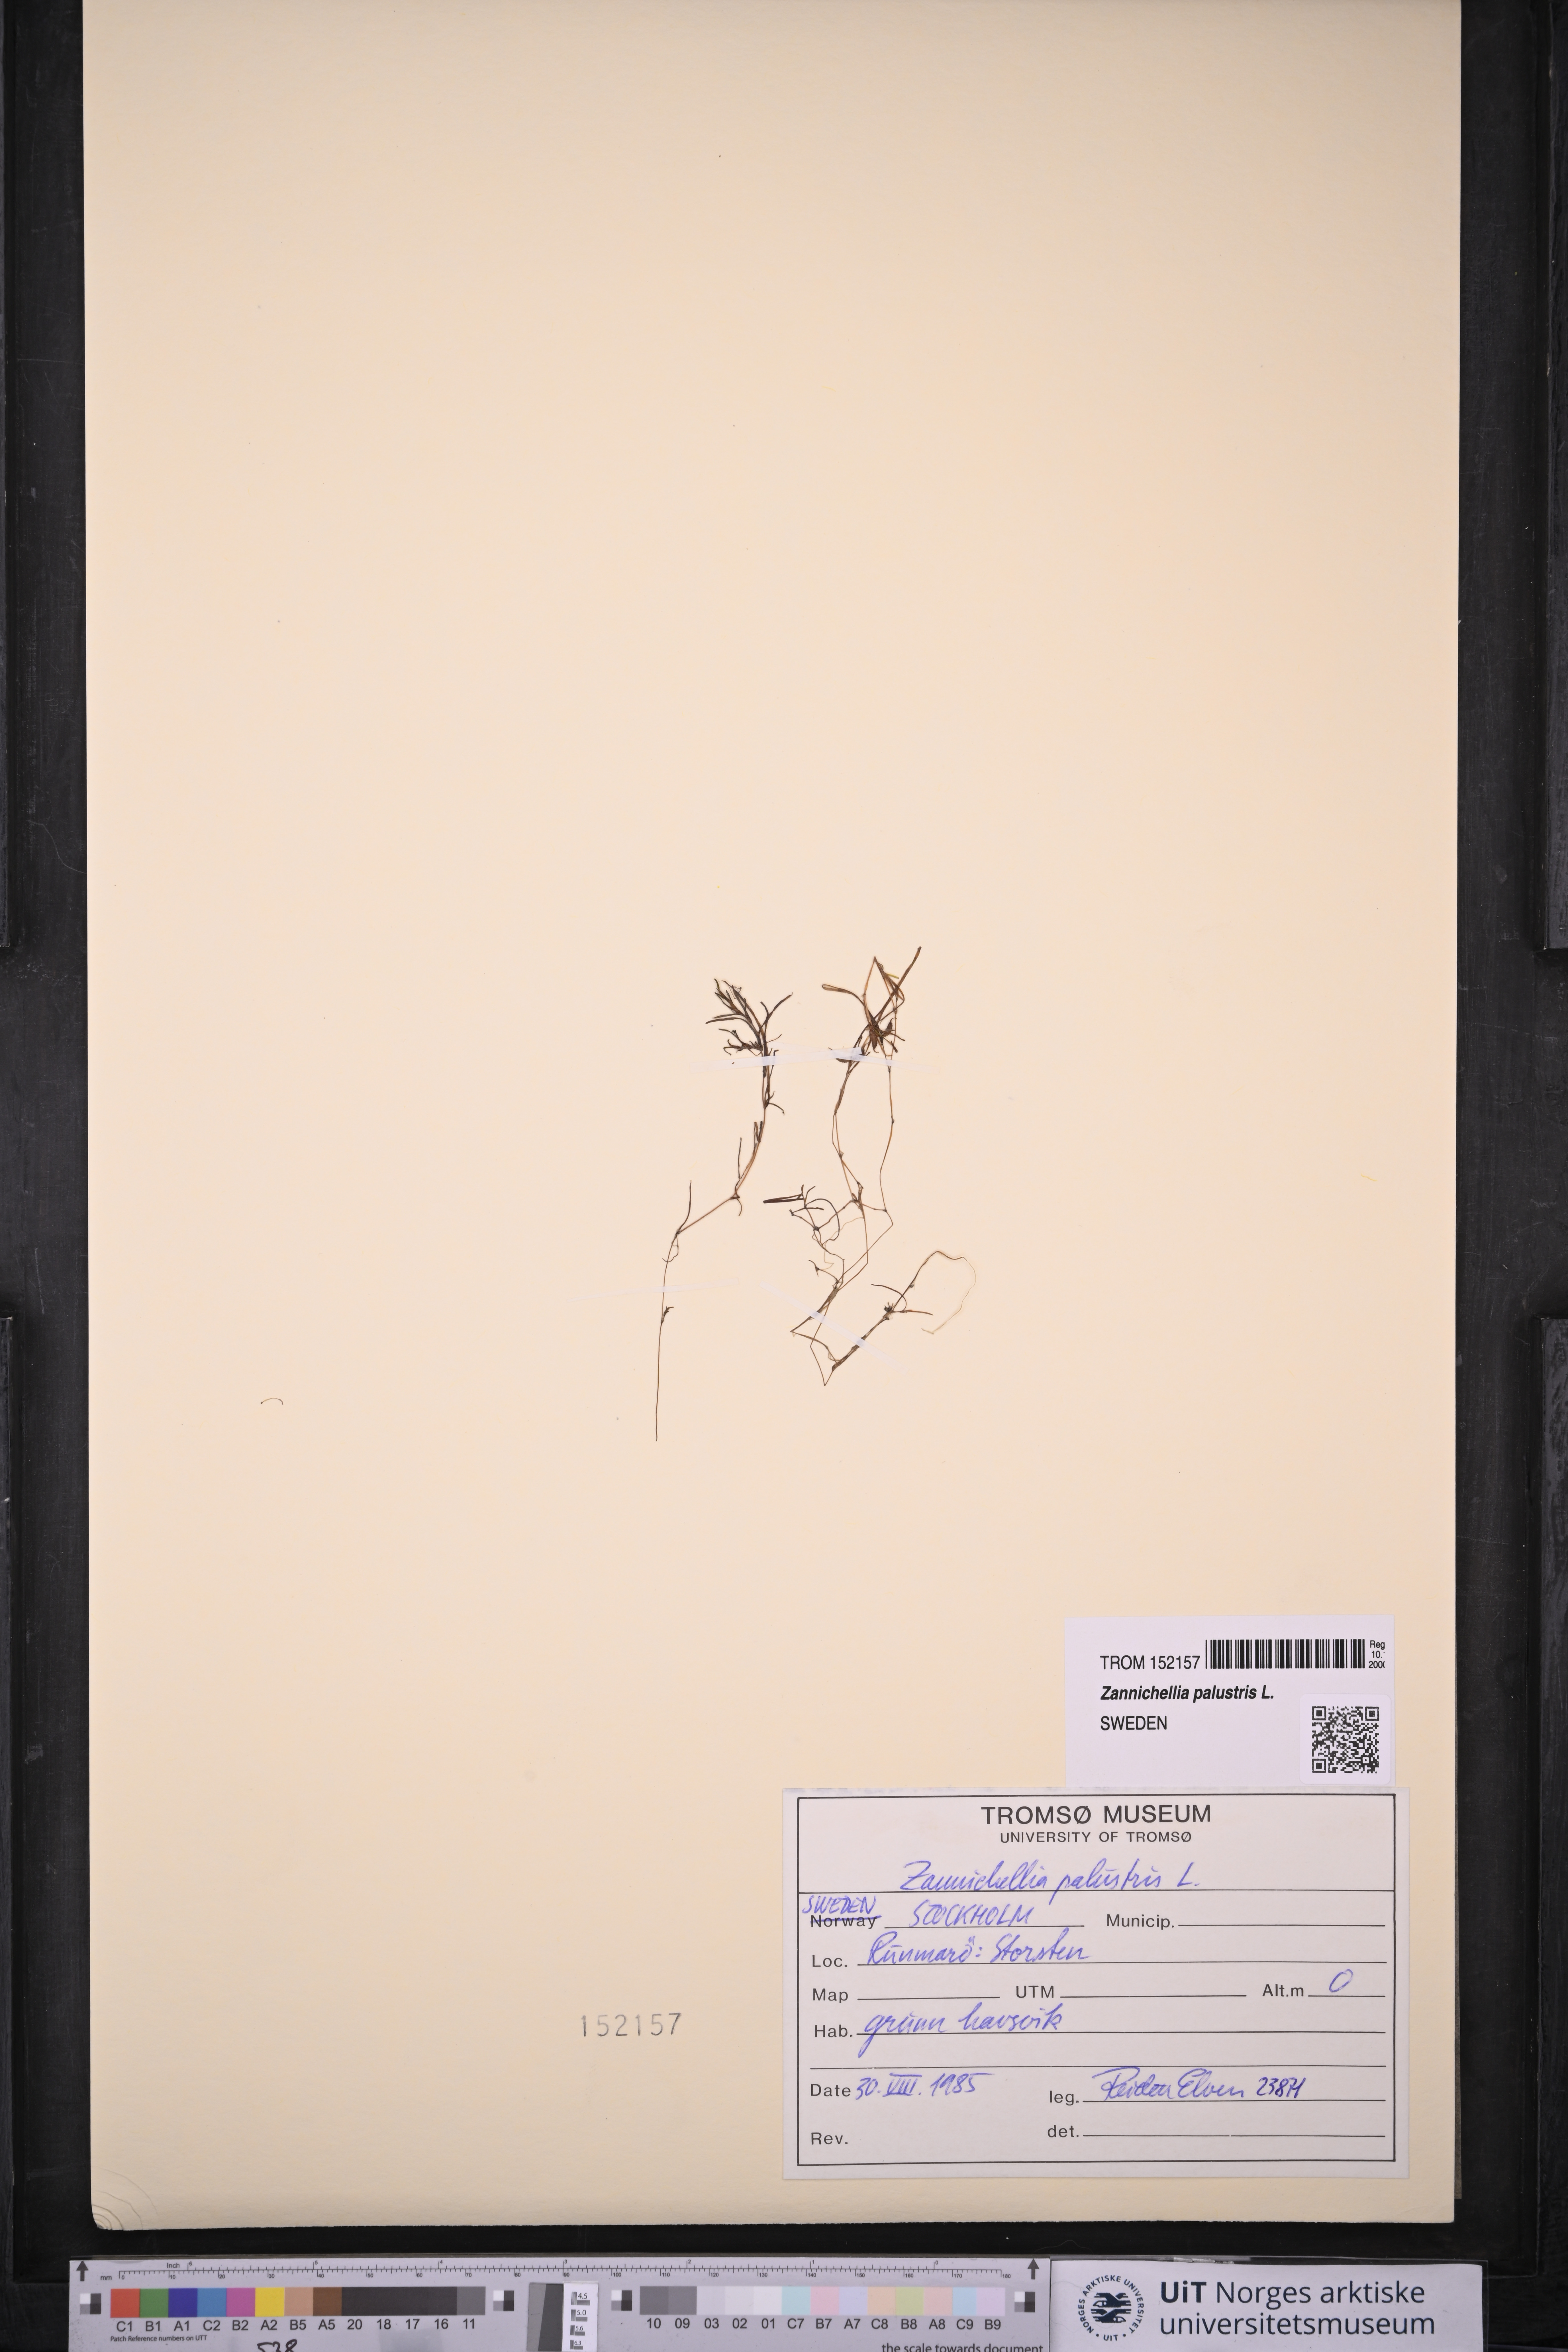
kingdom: Plantae
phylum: Tracheophyta
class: Liliopsida
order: Alismatales
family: Potamogetonaceae
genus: Zannichellia
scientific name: Zannichellia palustris
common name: Horned pondweed
